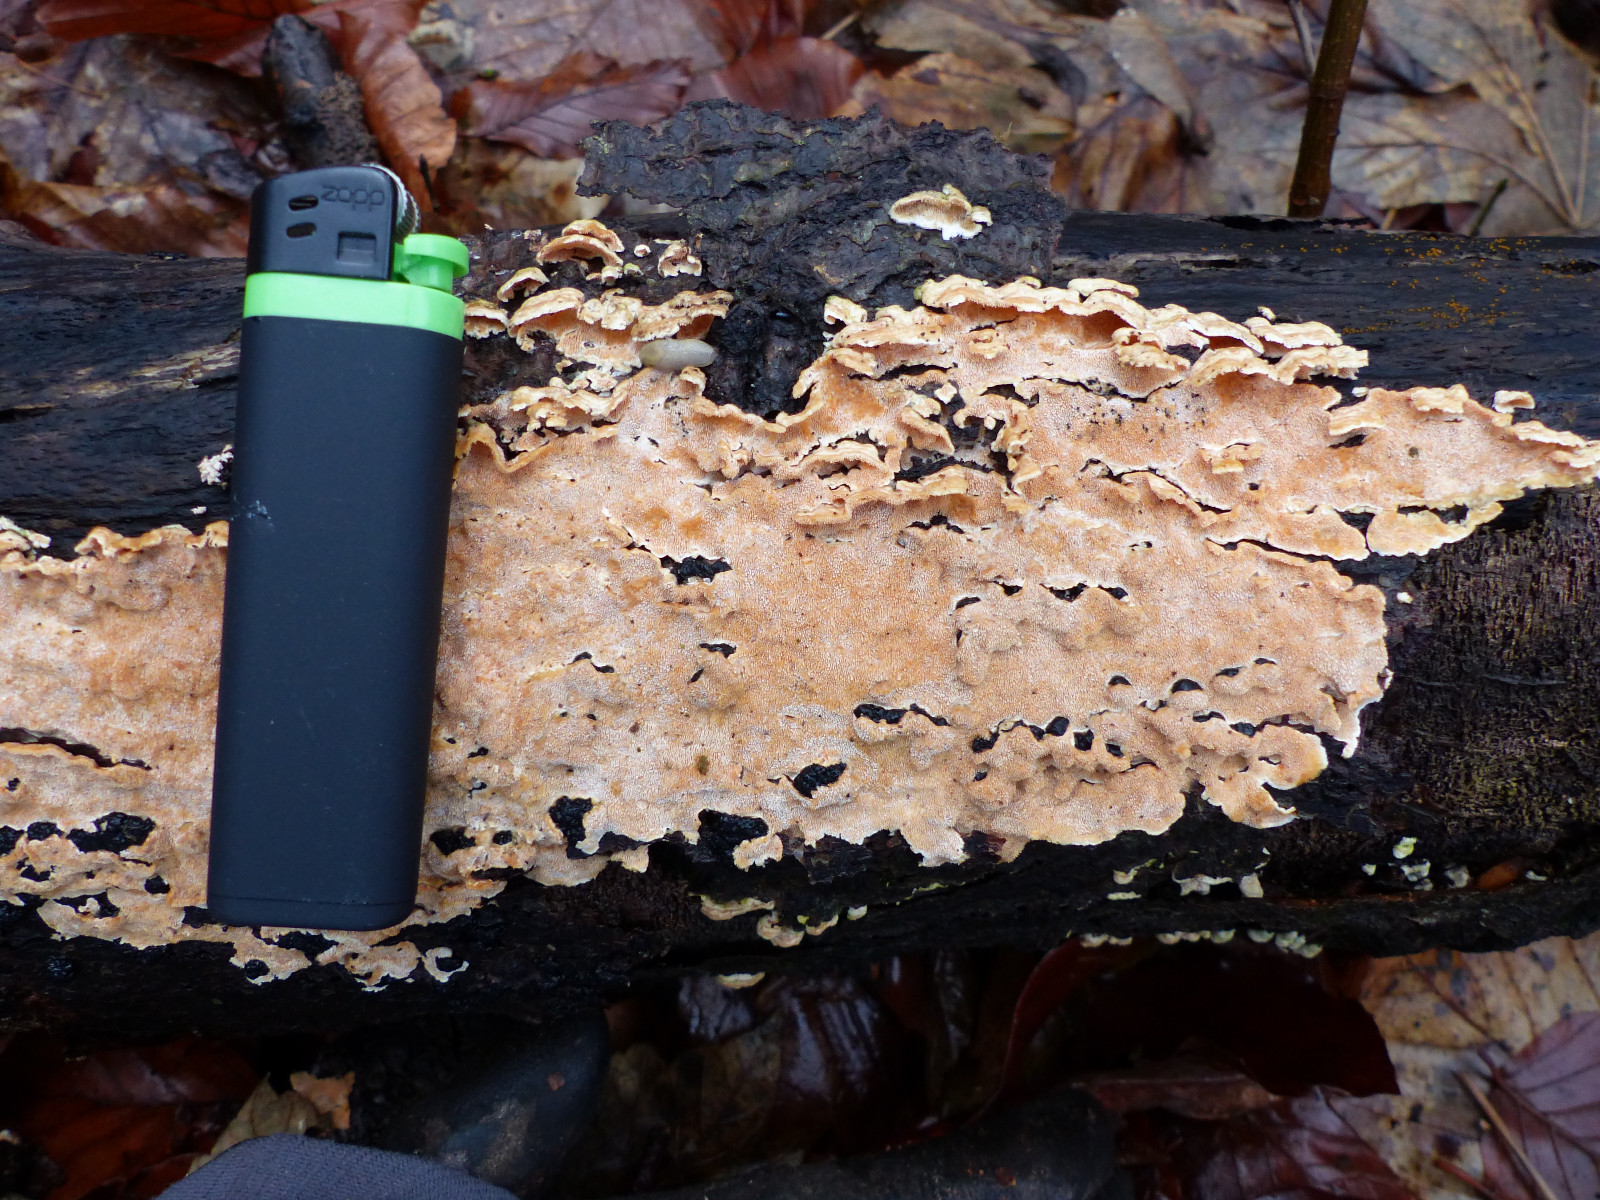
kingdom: Fungi
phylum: Basidiomycota
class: Agaricomycetes
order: Polyporales
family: Steccherinaceae
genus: Steccherinum
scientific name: Steccherinum ochraceum
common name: almindelig skønpig
